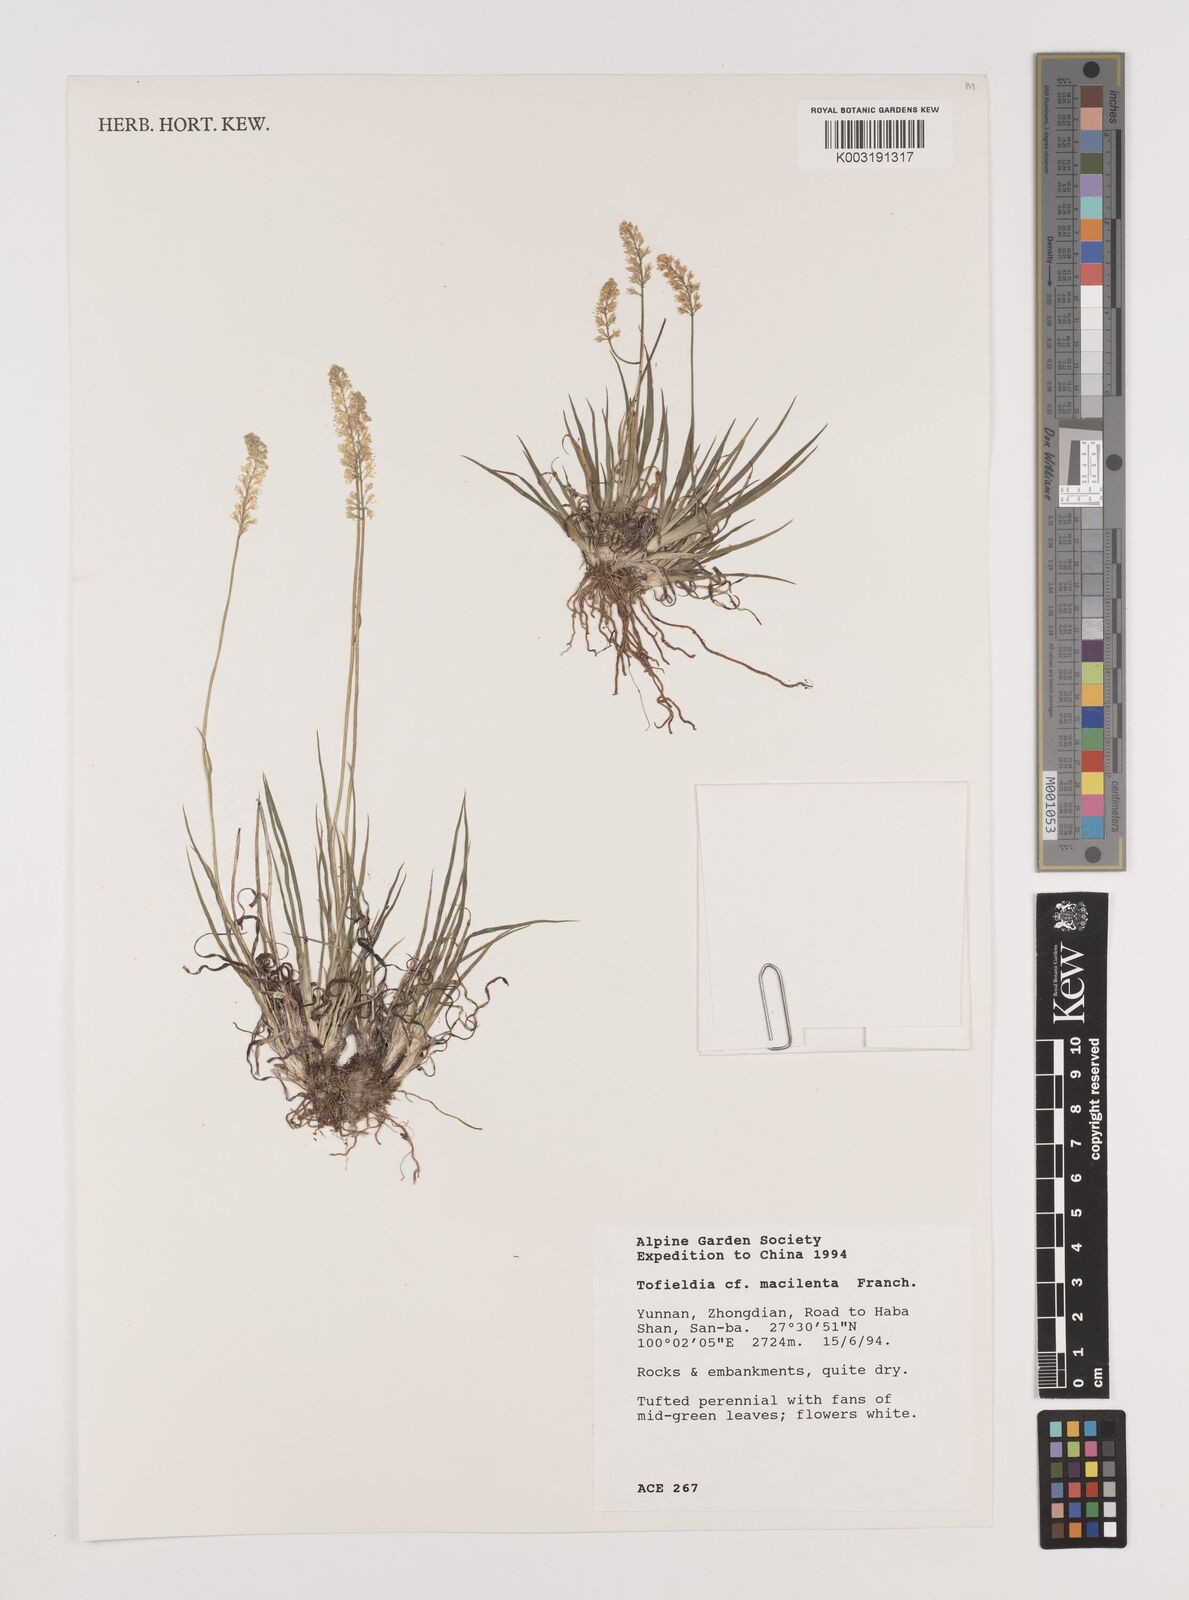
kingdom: Plantae
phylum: Tracheophyta
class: Liliopsida
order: Alismatales
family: Tofieldiaceae
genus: Tofieldia
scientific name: Tofieldia thibetica
